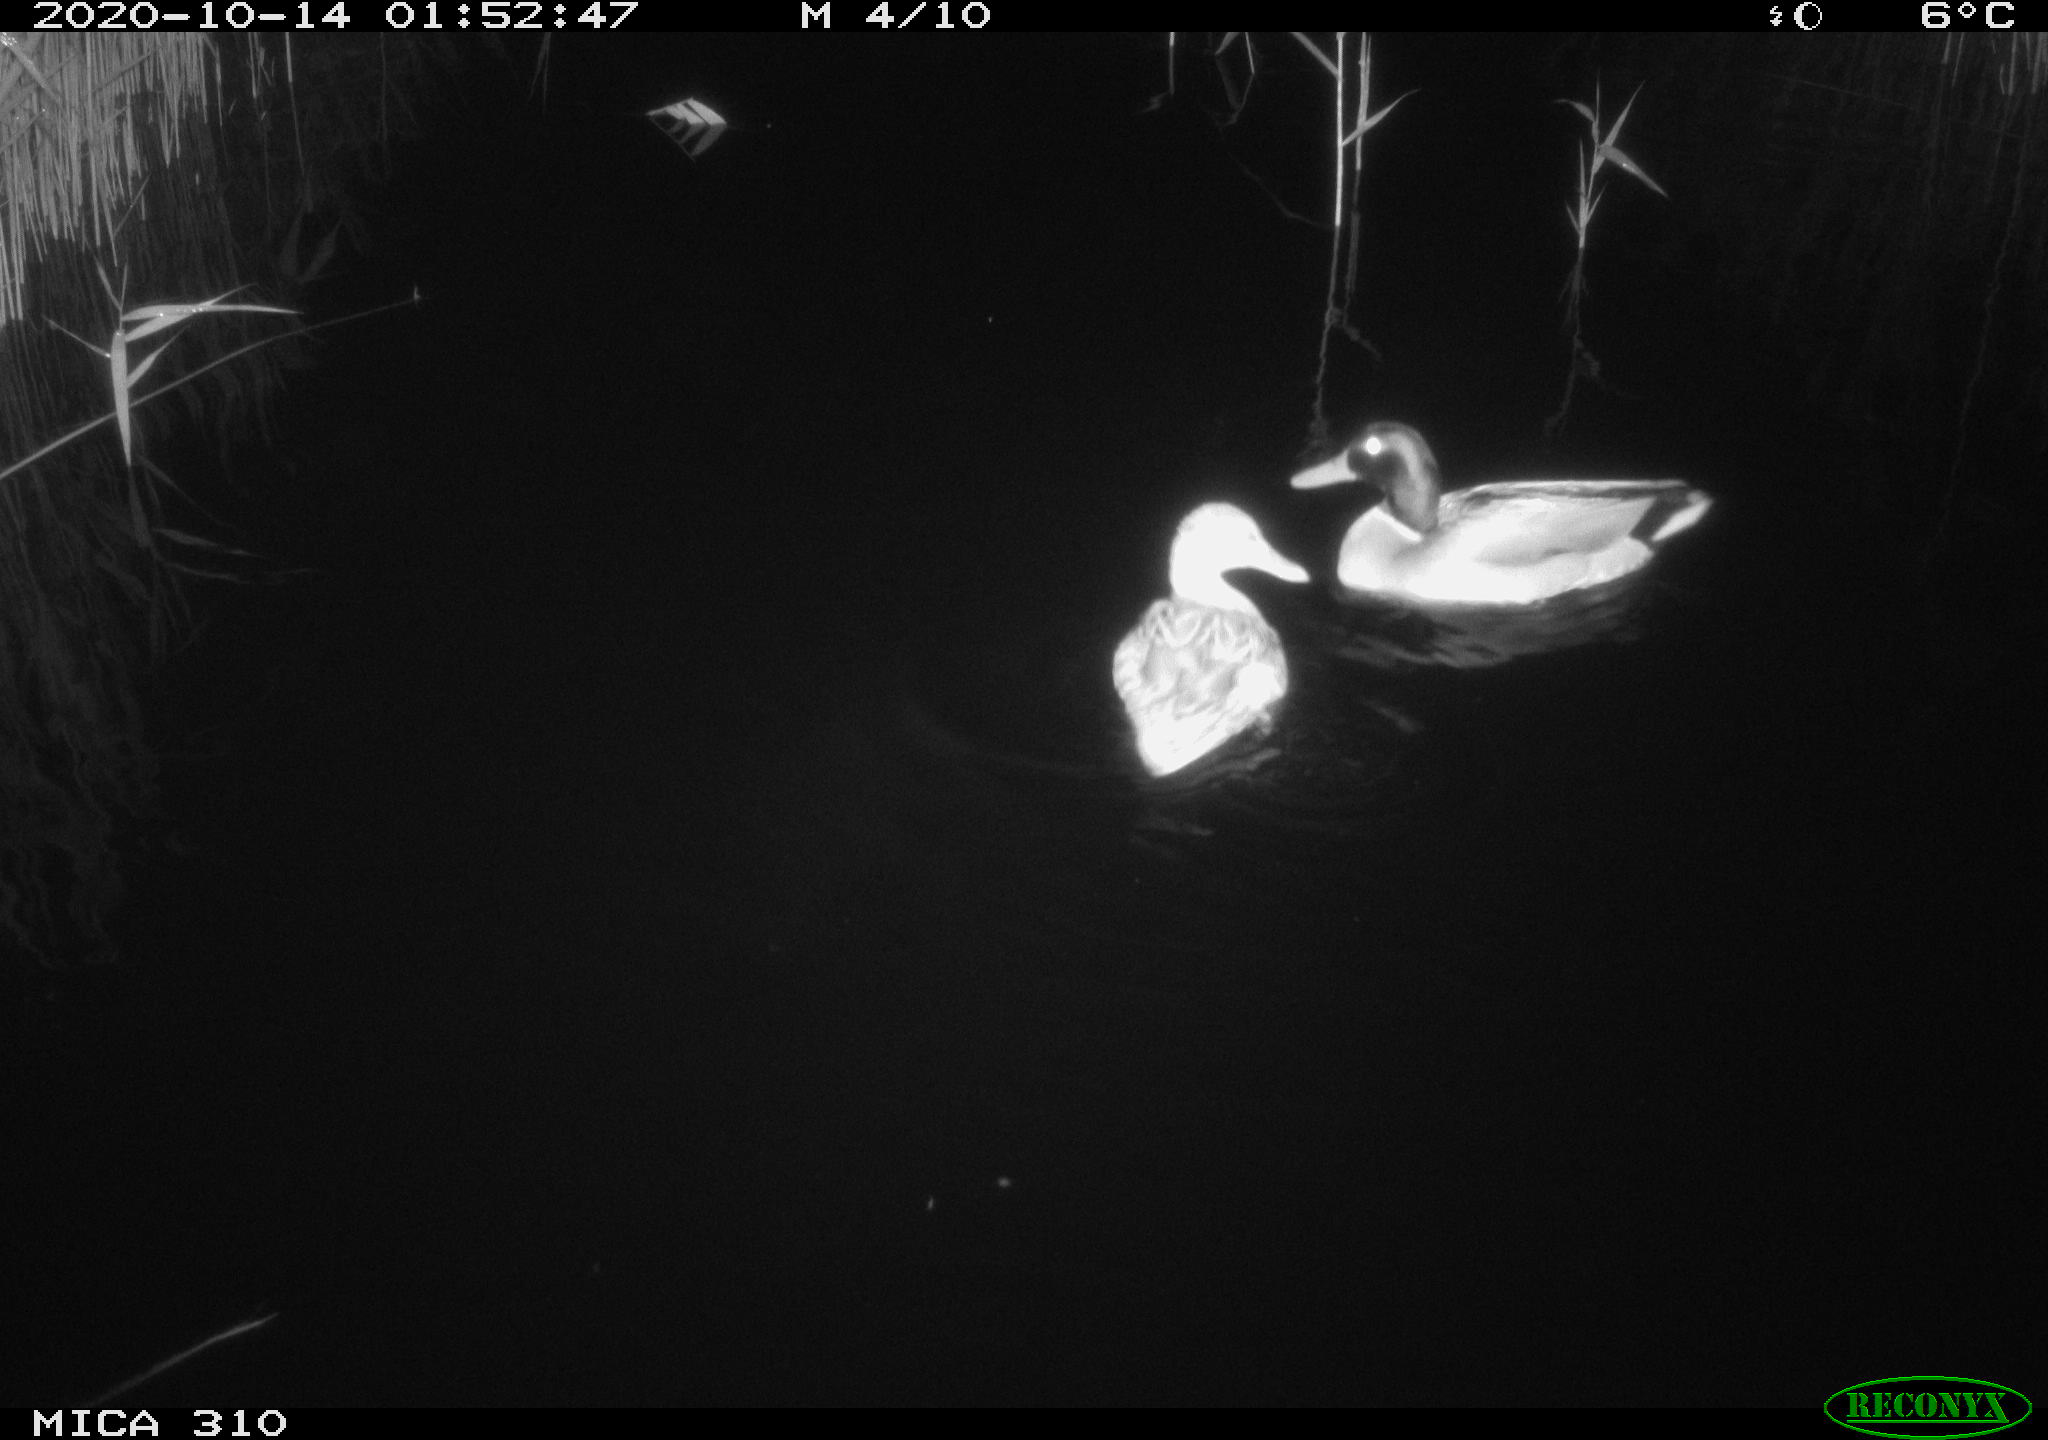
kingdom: Animalia
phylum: Chordata
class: Aves
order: Anseriformes
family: Anatidae
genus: Anas
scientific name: Anas platyrhynchos
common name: Mallard
